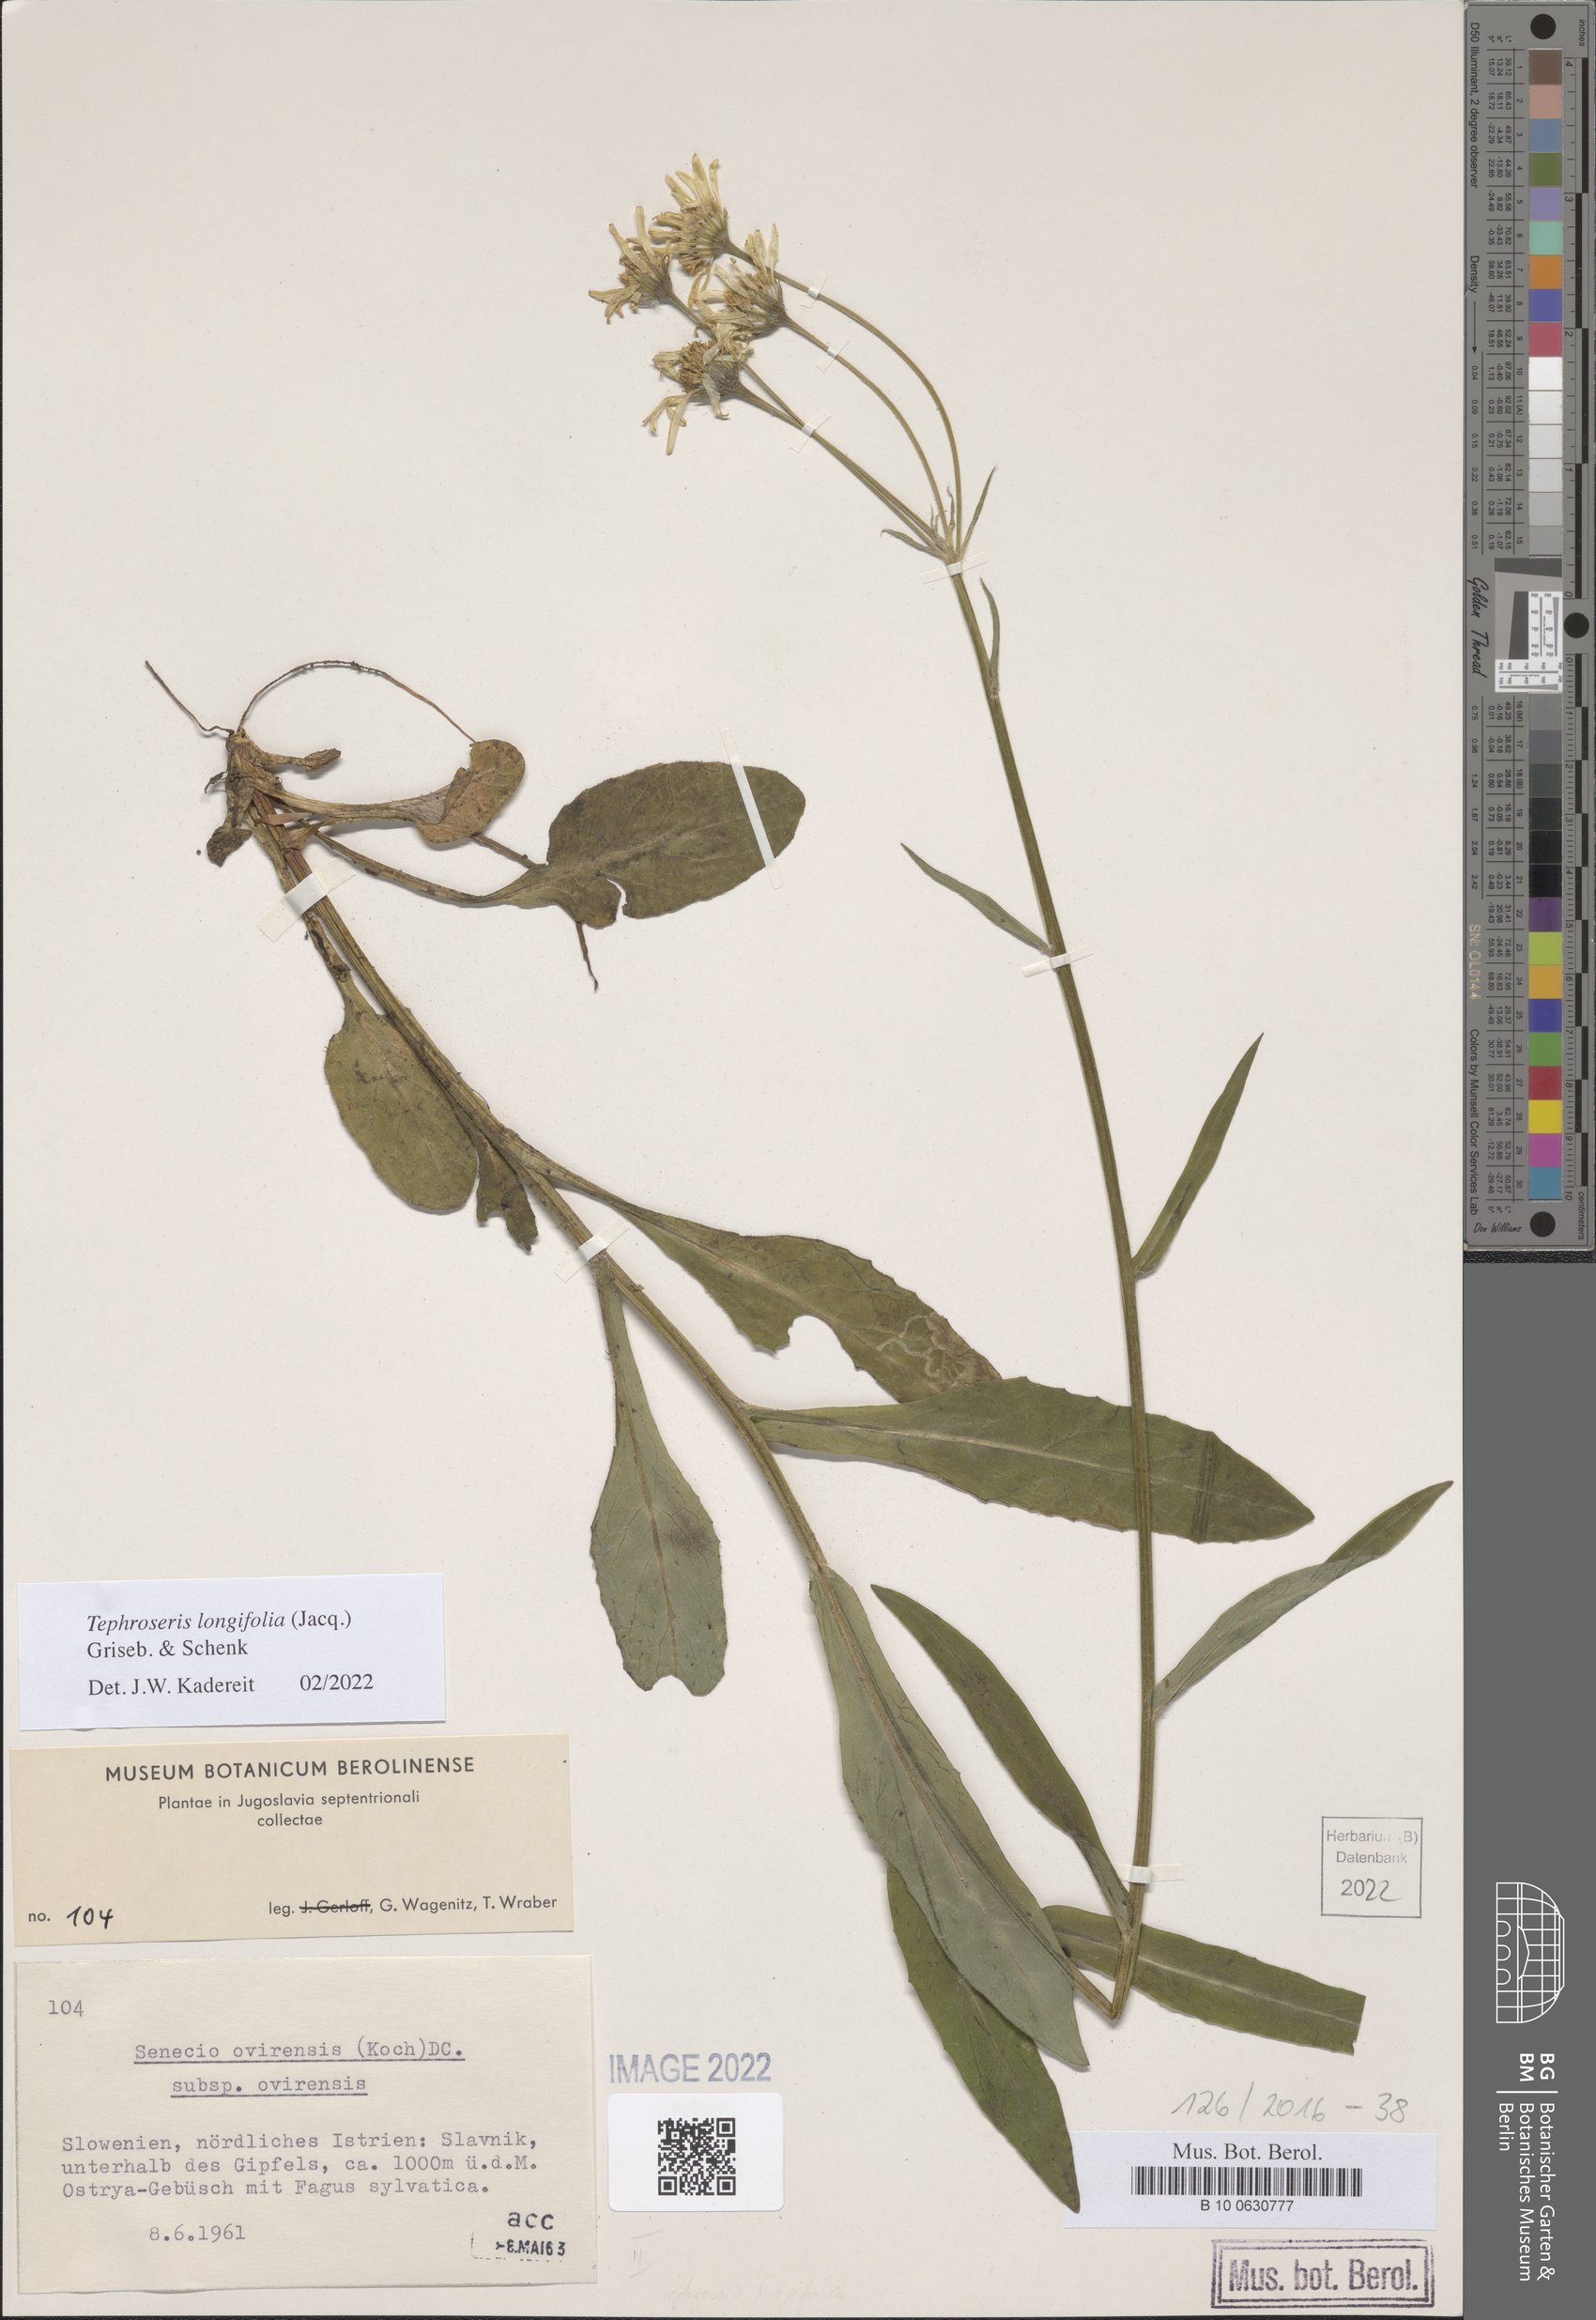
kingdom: Plantae
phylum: Tracheophyta
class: Magnoliopsida
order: Asterales
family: Asteraceae
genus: Tephroseris
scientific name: Tephroseris longifolia
